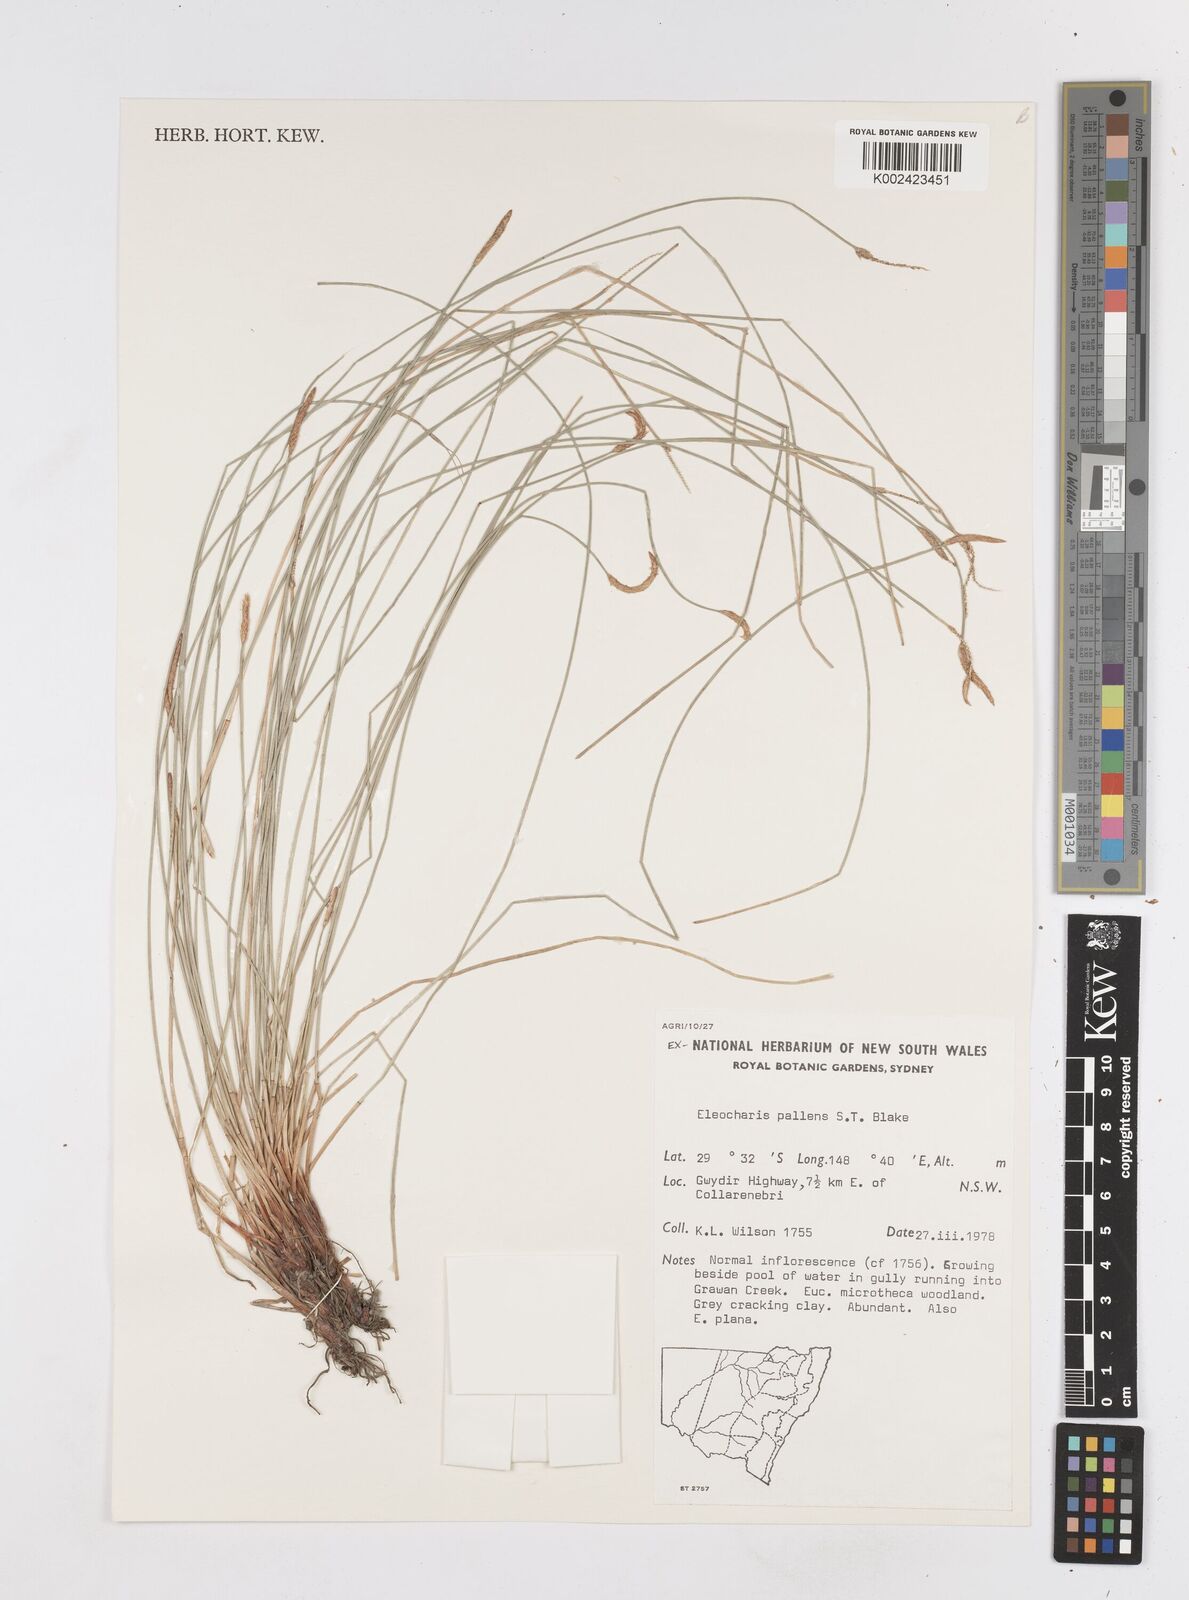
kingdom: Plantae
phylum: Tracheophyta
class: Liliopsida
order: Poales
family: Cyperaceae
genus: Eleocharis
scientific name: Eleocharis acuta
